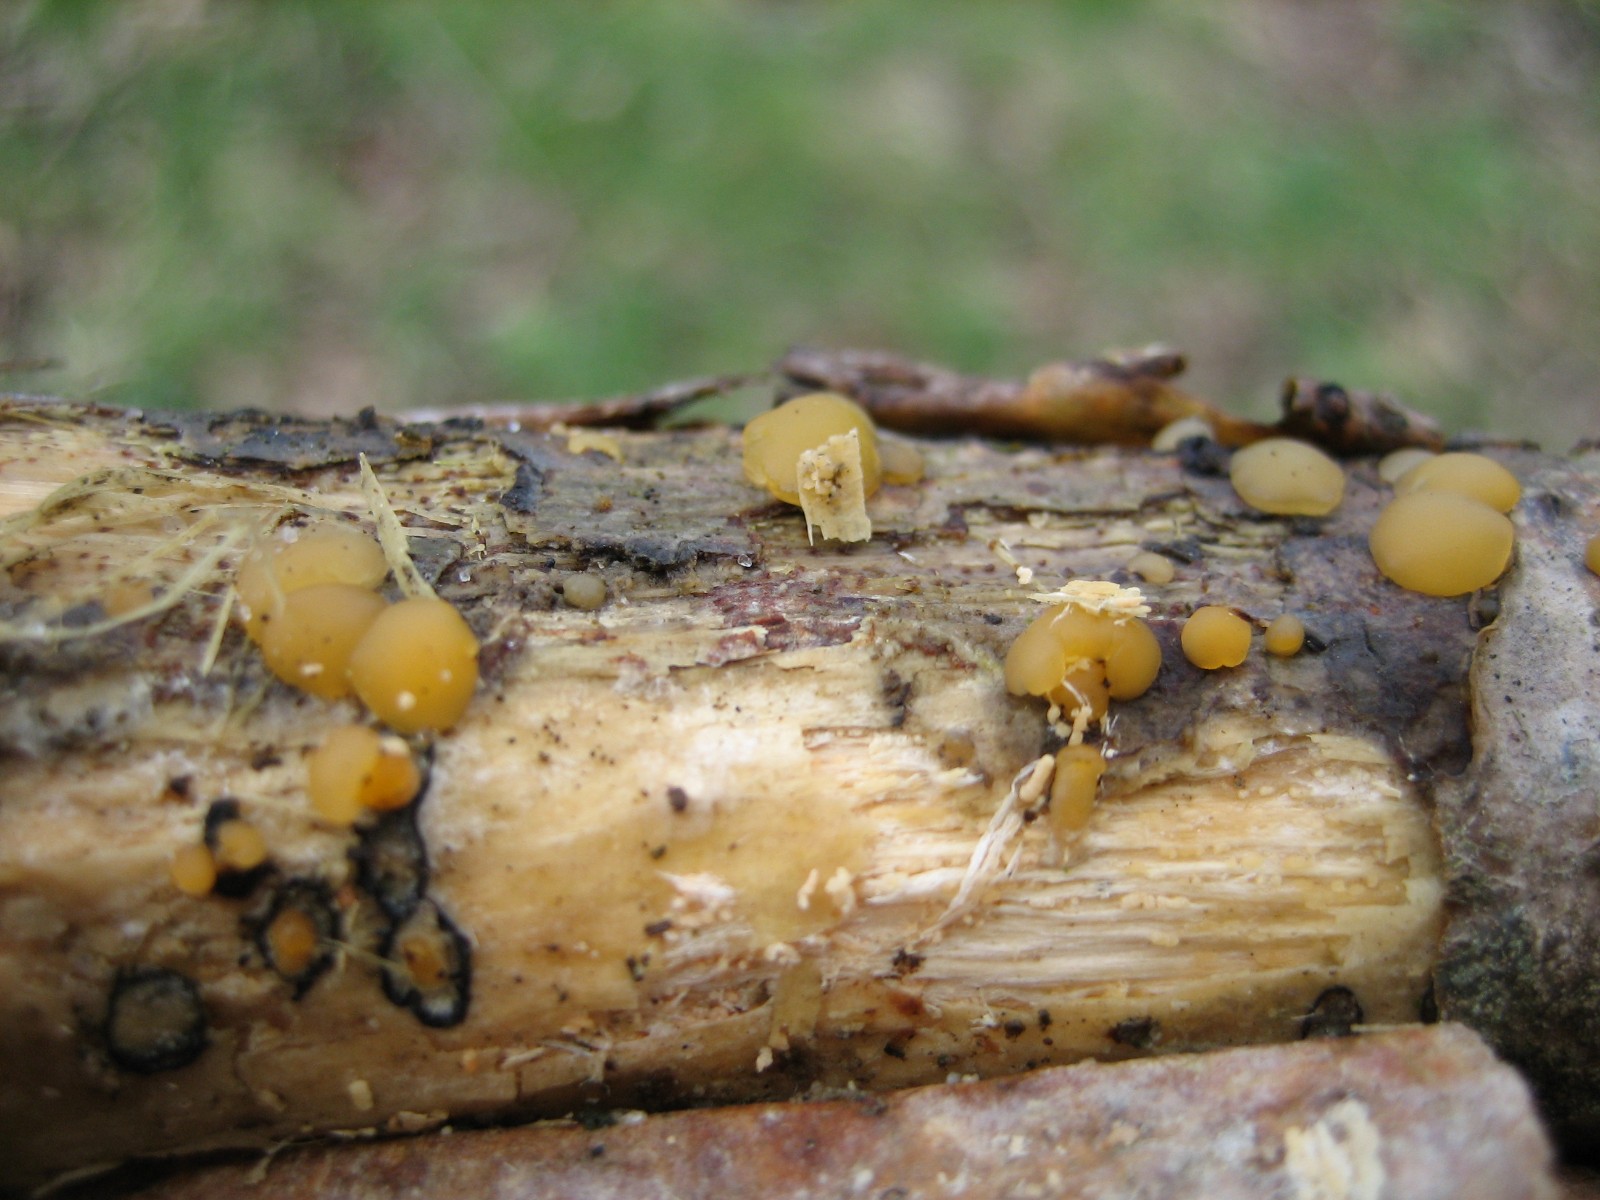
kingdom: Fungi
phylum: Basidiomycota
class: Dacrymycetes
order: Dacrymycetales
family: Dacrymycetaceae
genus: Dacrymyces
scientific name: Dacrymyces
